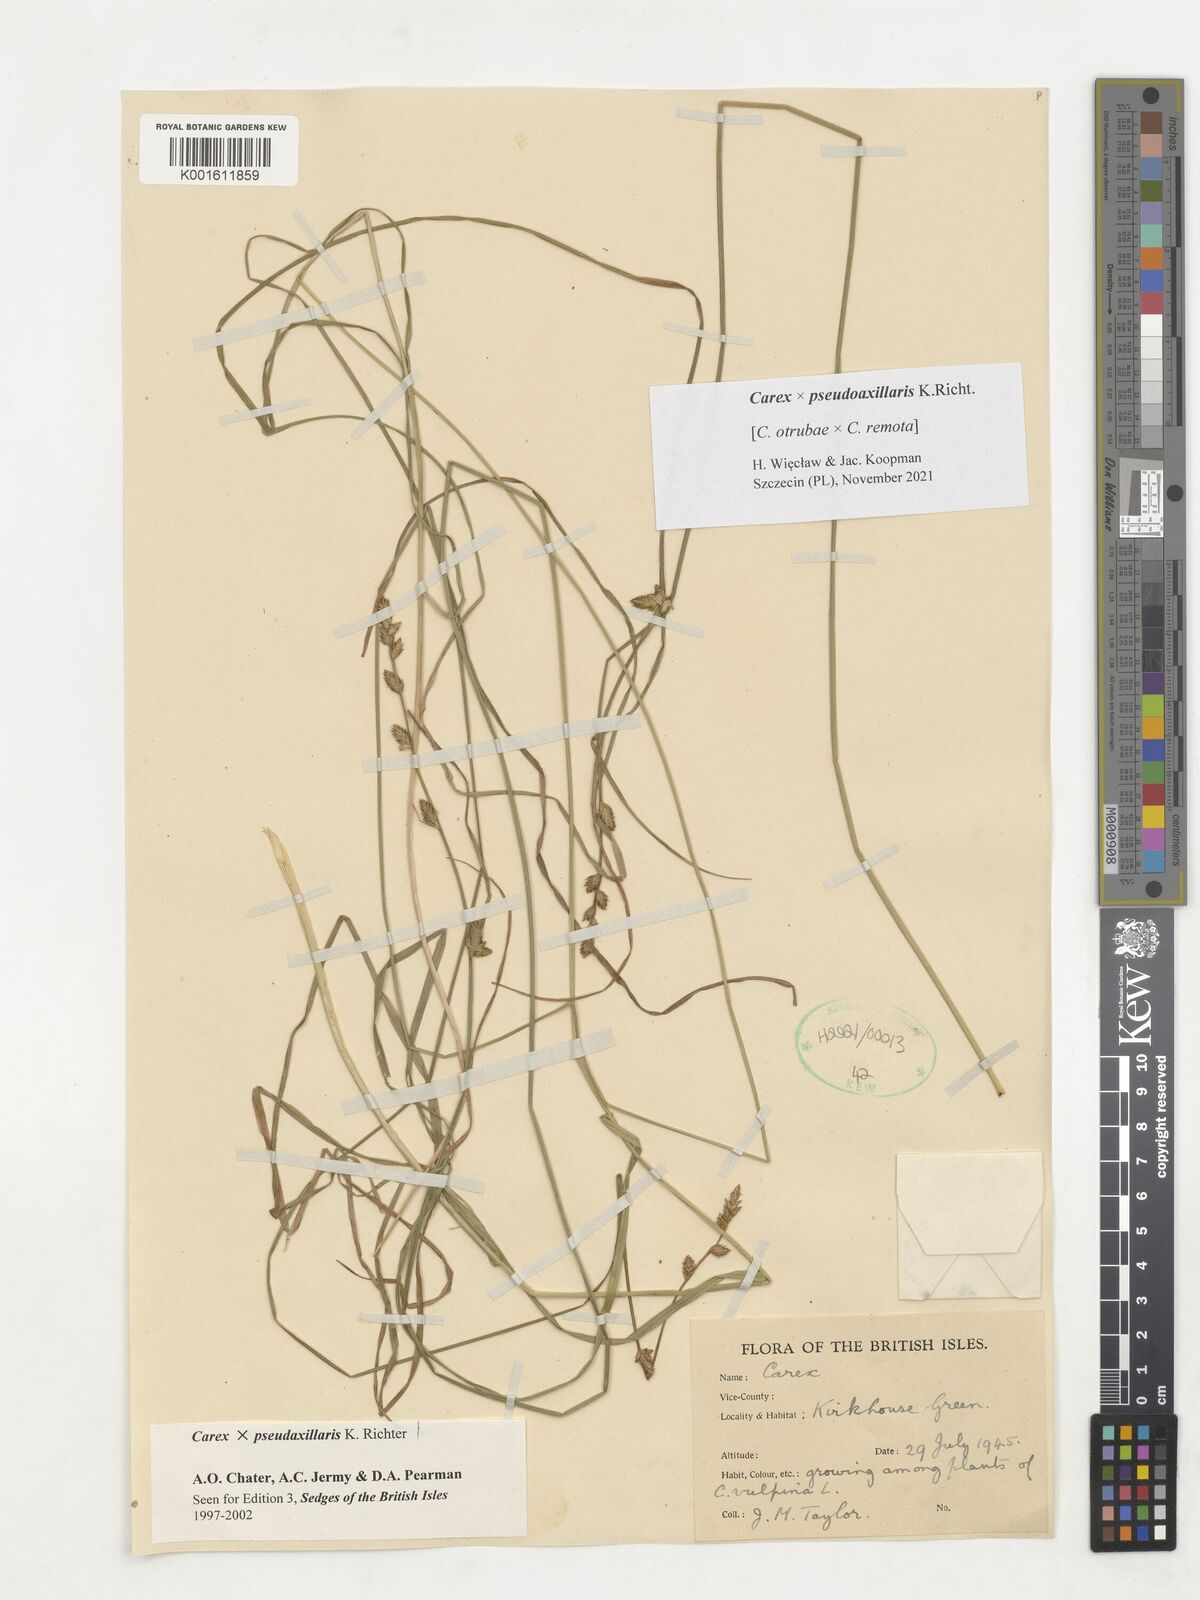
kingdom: Plantae
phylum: Tracheophyta
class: Liliopsida
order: Poales
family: Cyperaceae
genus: Carex
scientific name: Carex pseudoaxillaris
